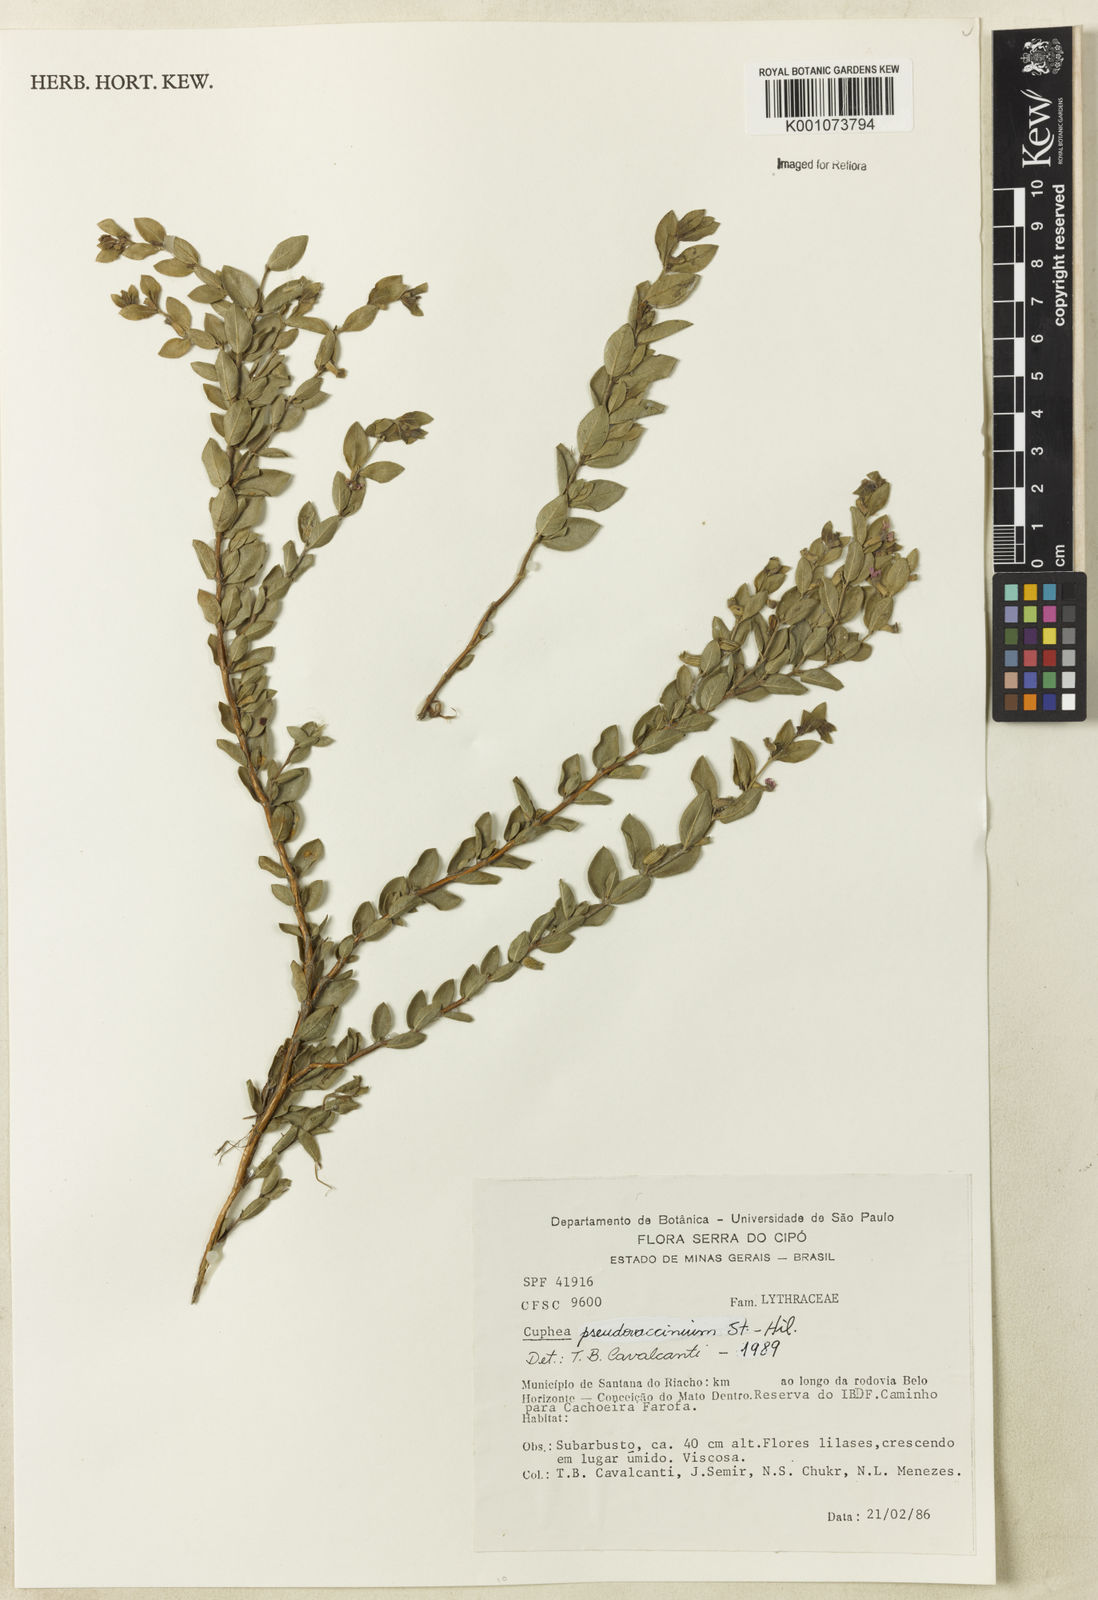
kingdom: Plantae
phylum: Tracheophyta
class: Magnoliopsida
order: Myrtales
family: Lythraceae
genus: Cuphea
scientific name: Cuphea pseudovaccinium
